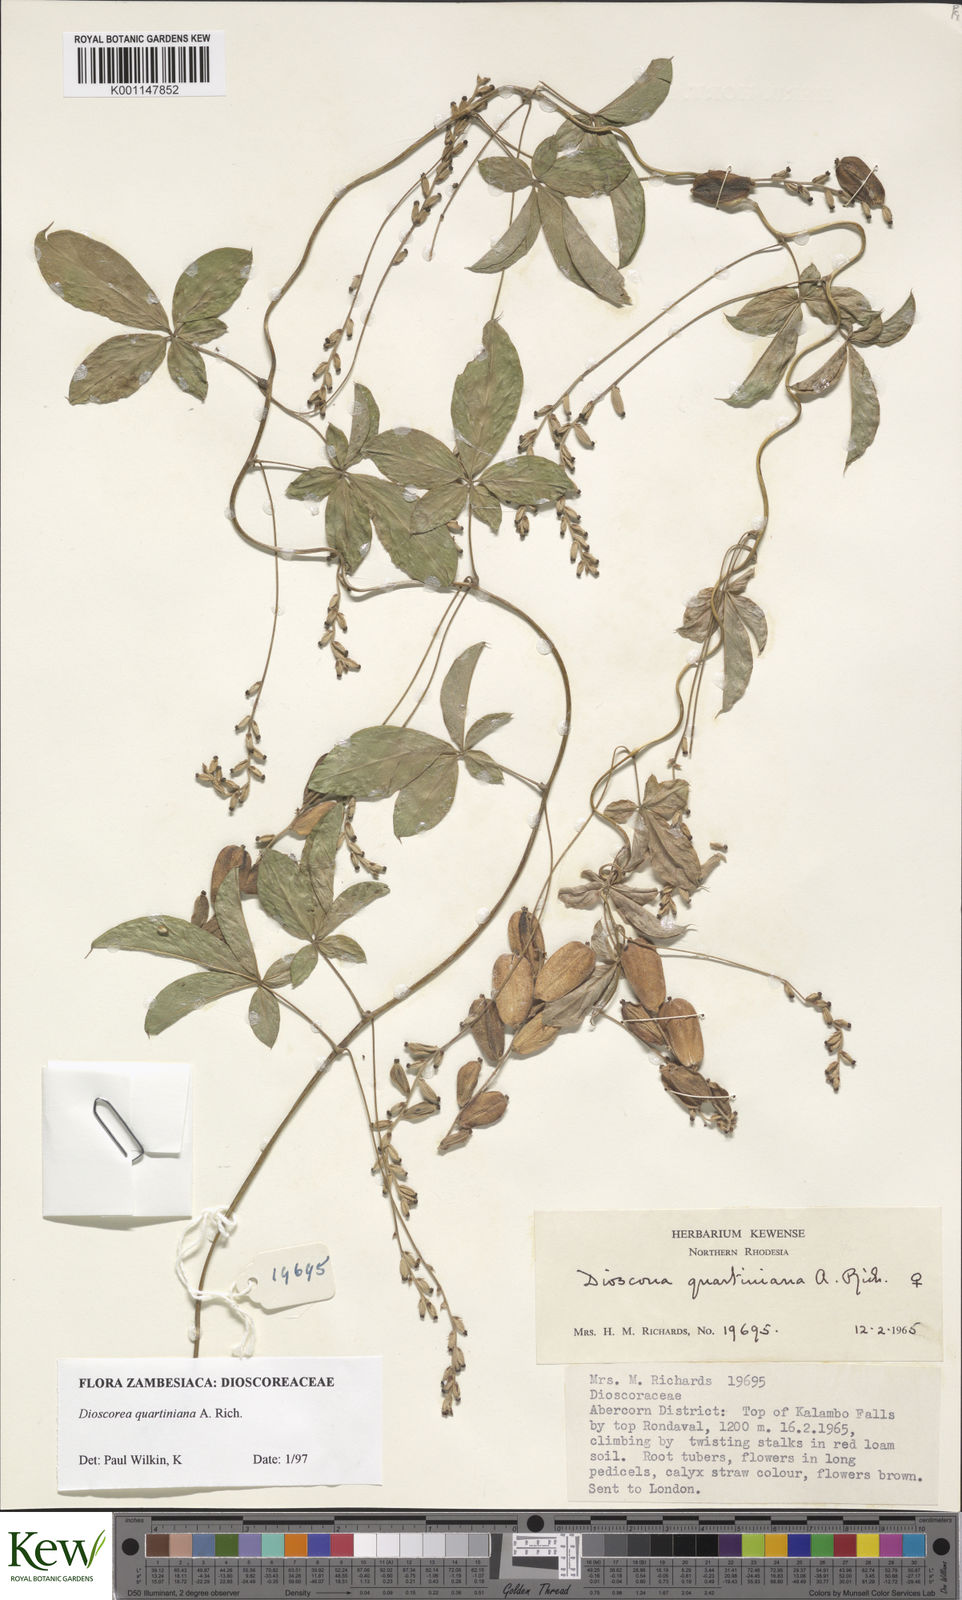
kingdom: Plantae
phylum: Tracheophyta
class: Liliopsida
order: Dioscoreales
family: Dioscoreaceae
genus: Dioscorea
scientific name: Dioscorea quartiniana
